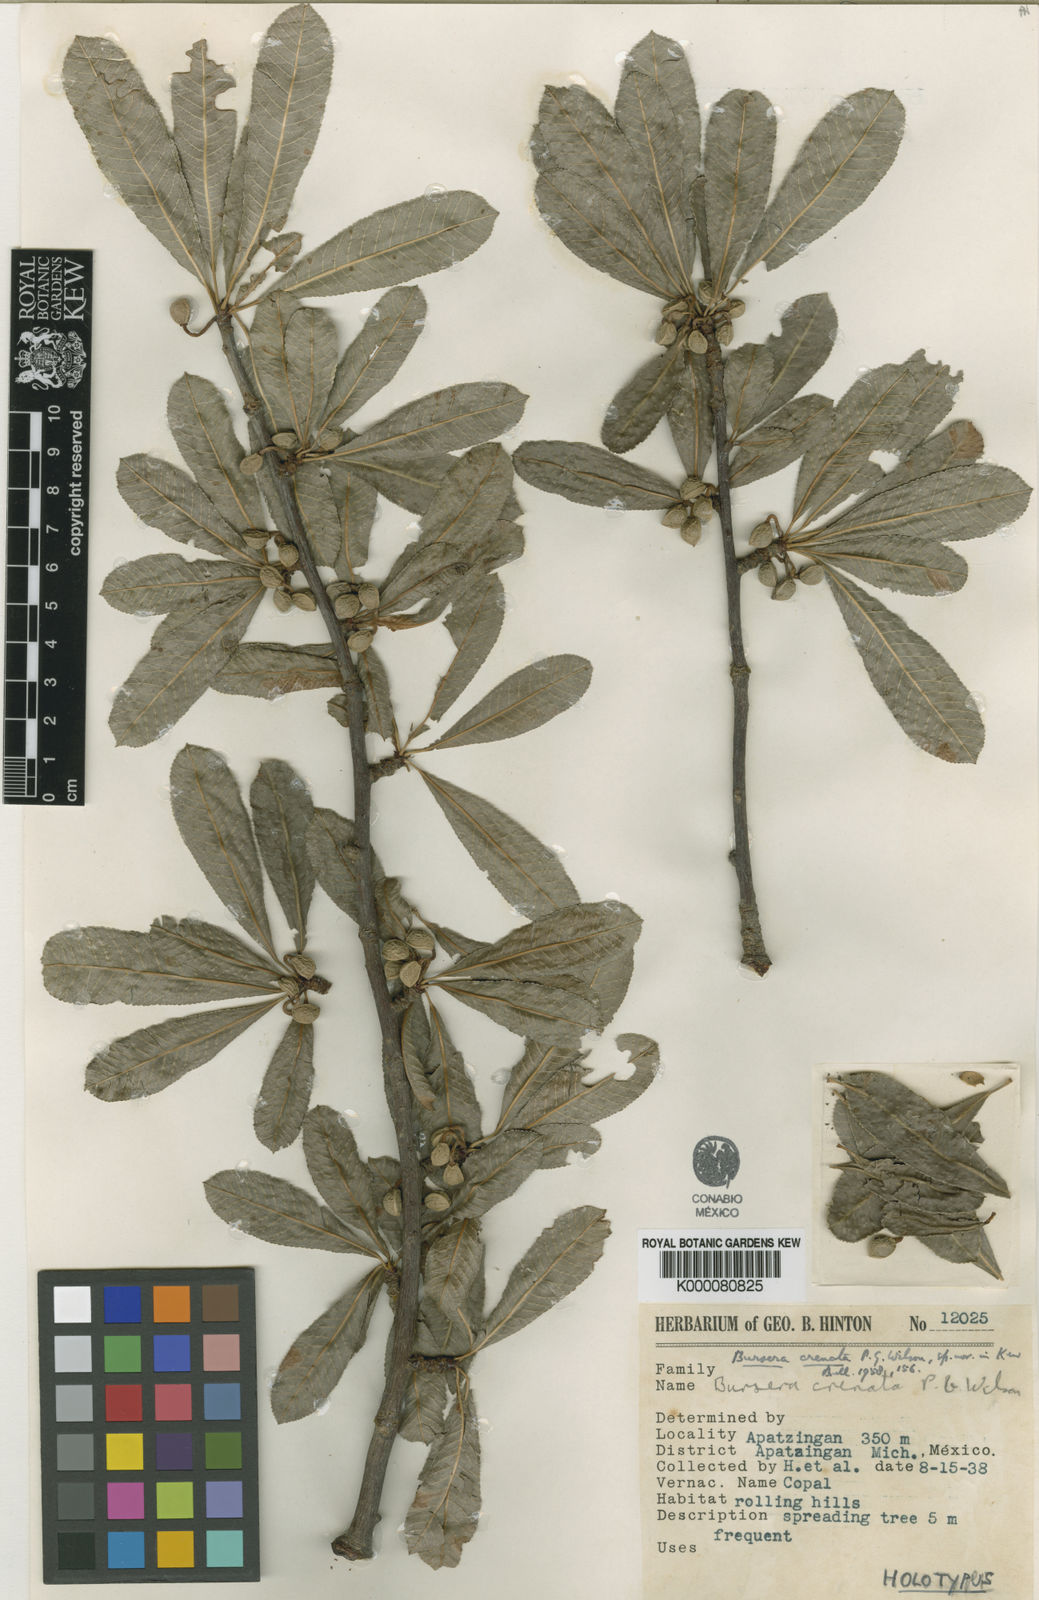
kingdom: Plantae
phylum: Tracheophyta
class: Magnoliopsida
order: Sapindales
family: Burseraceae
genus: Bursera
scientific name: Bursera crenata
